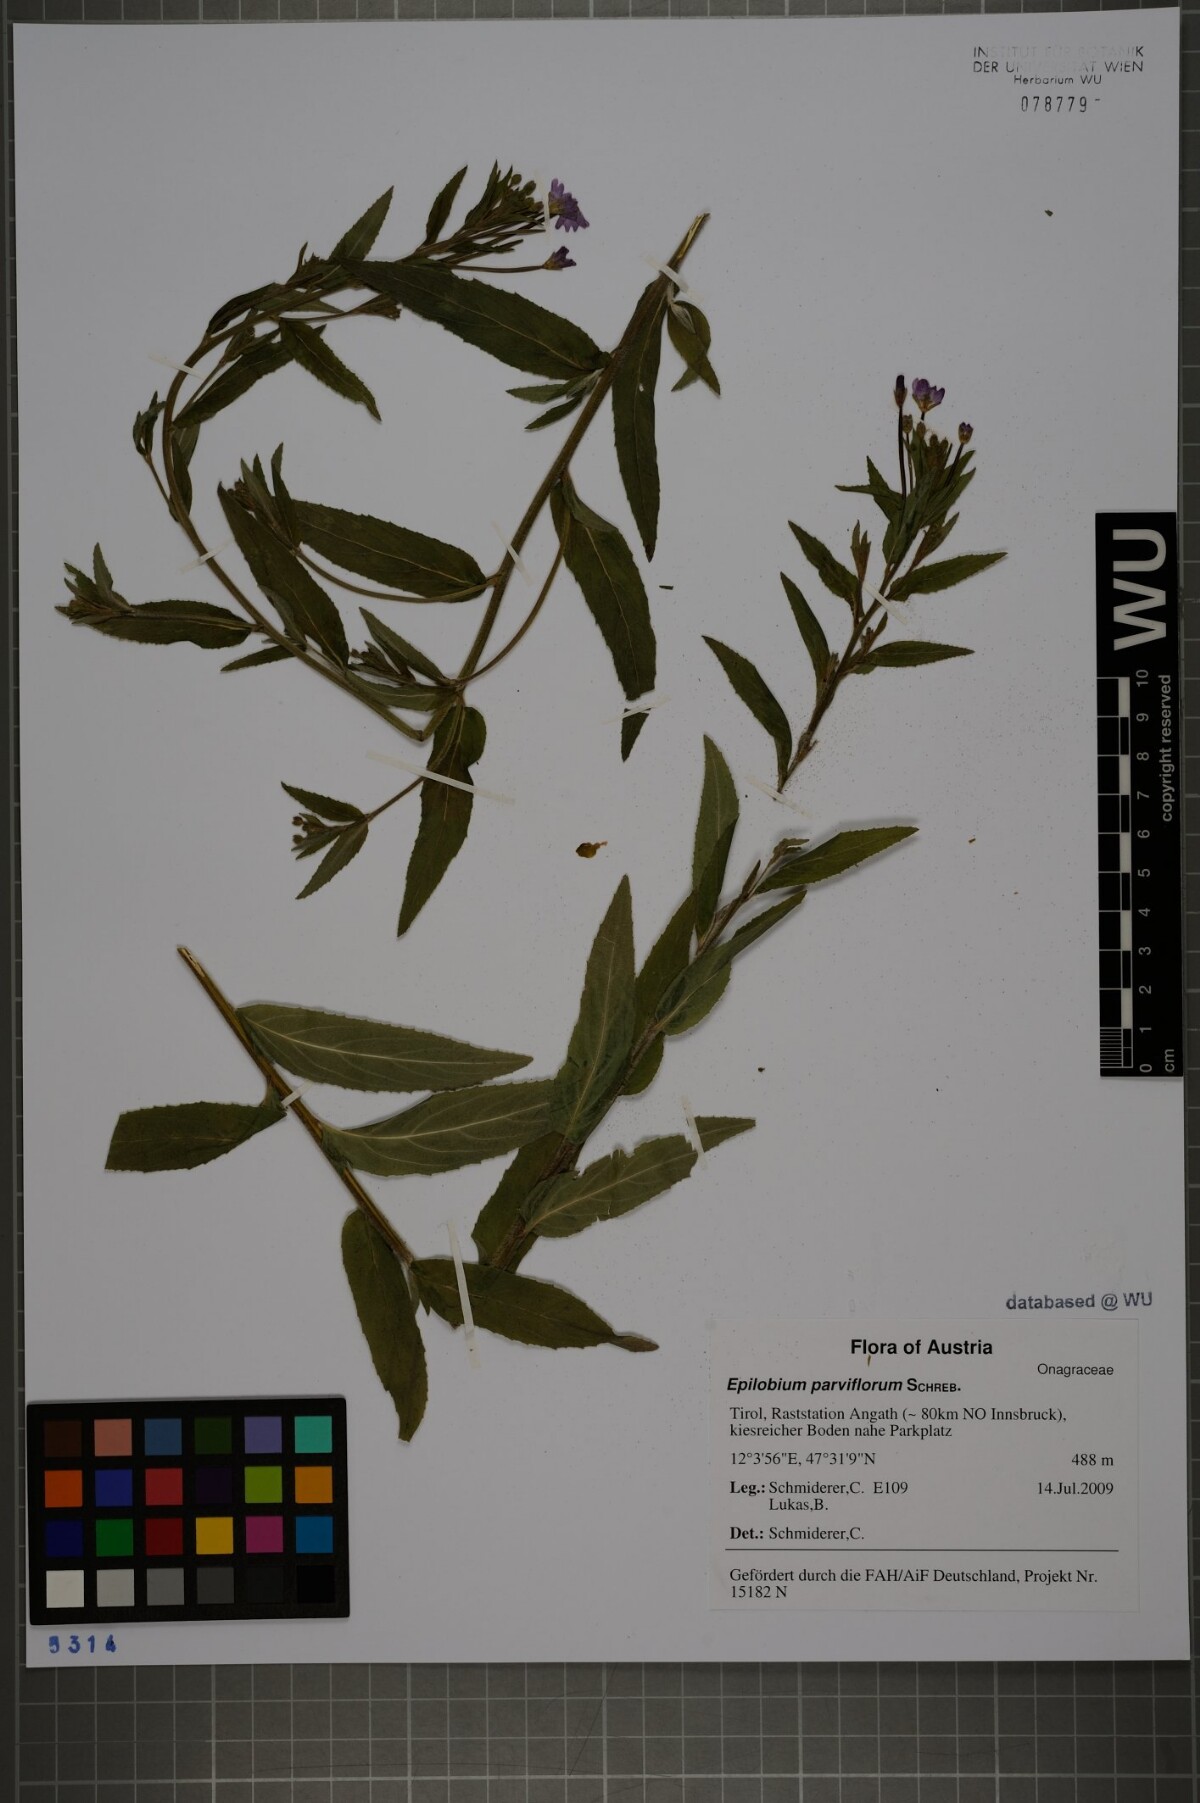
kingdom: Plantae
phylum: Tracheophyta
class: Magnoliopsida
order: Myrtales
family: Onagraceae
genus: Epilobium
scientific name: Epilobium parviflorum
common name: Hoary willowherb
